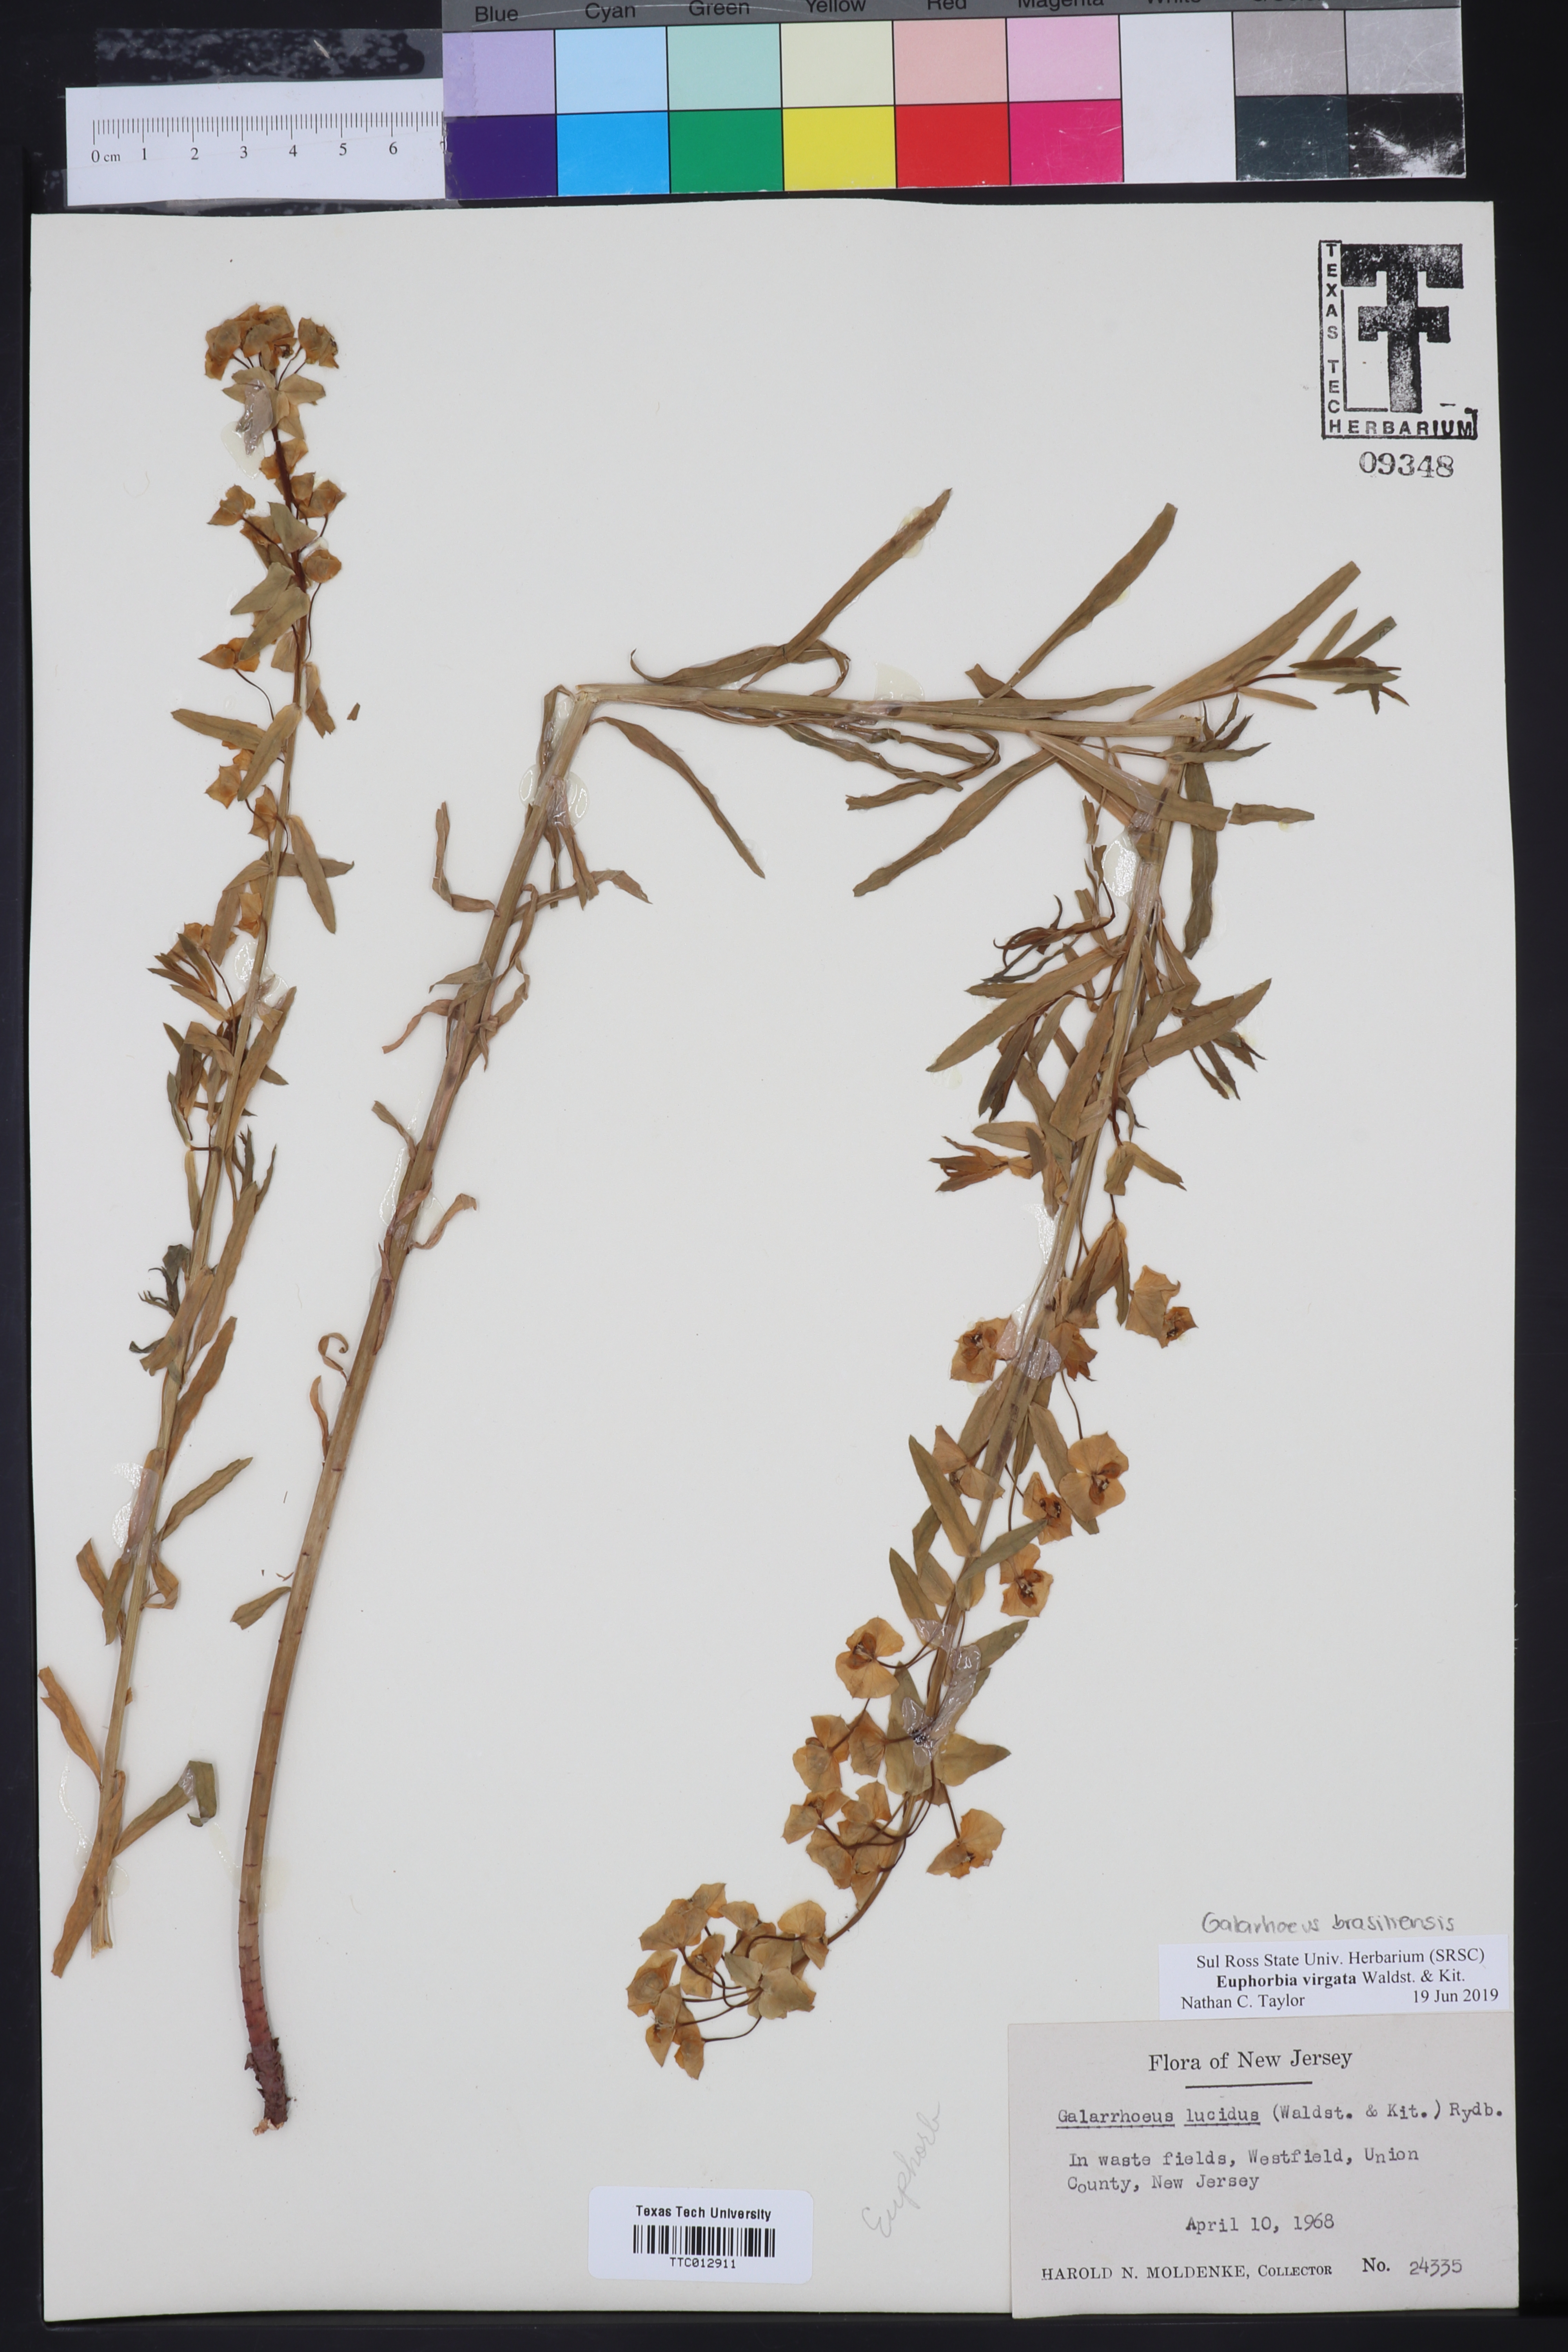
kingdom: Plantae
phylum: Tracheophyta
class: Magnoliopsida
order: Malpighiales
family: Euphorbiaceae
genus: Euphorbia
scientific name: Euphorbia virgata
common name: Leafy spurge
